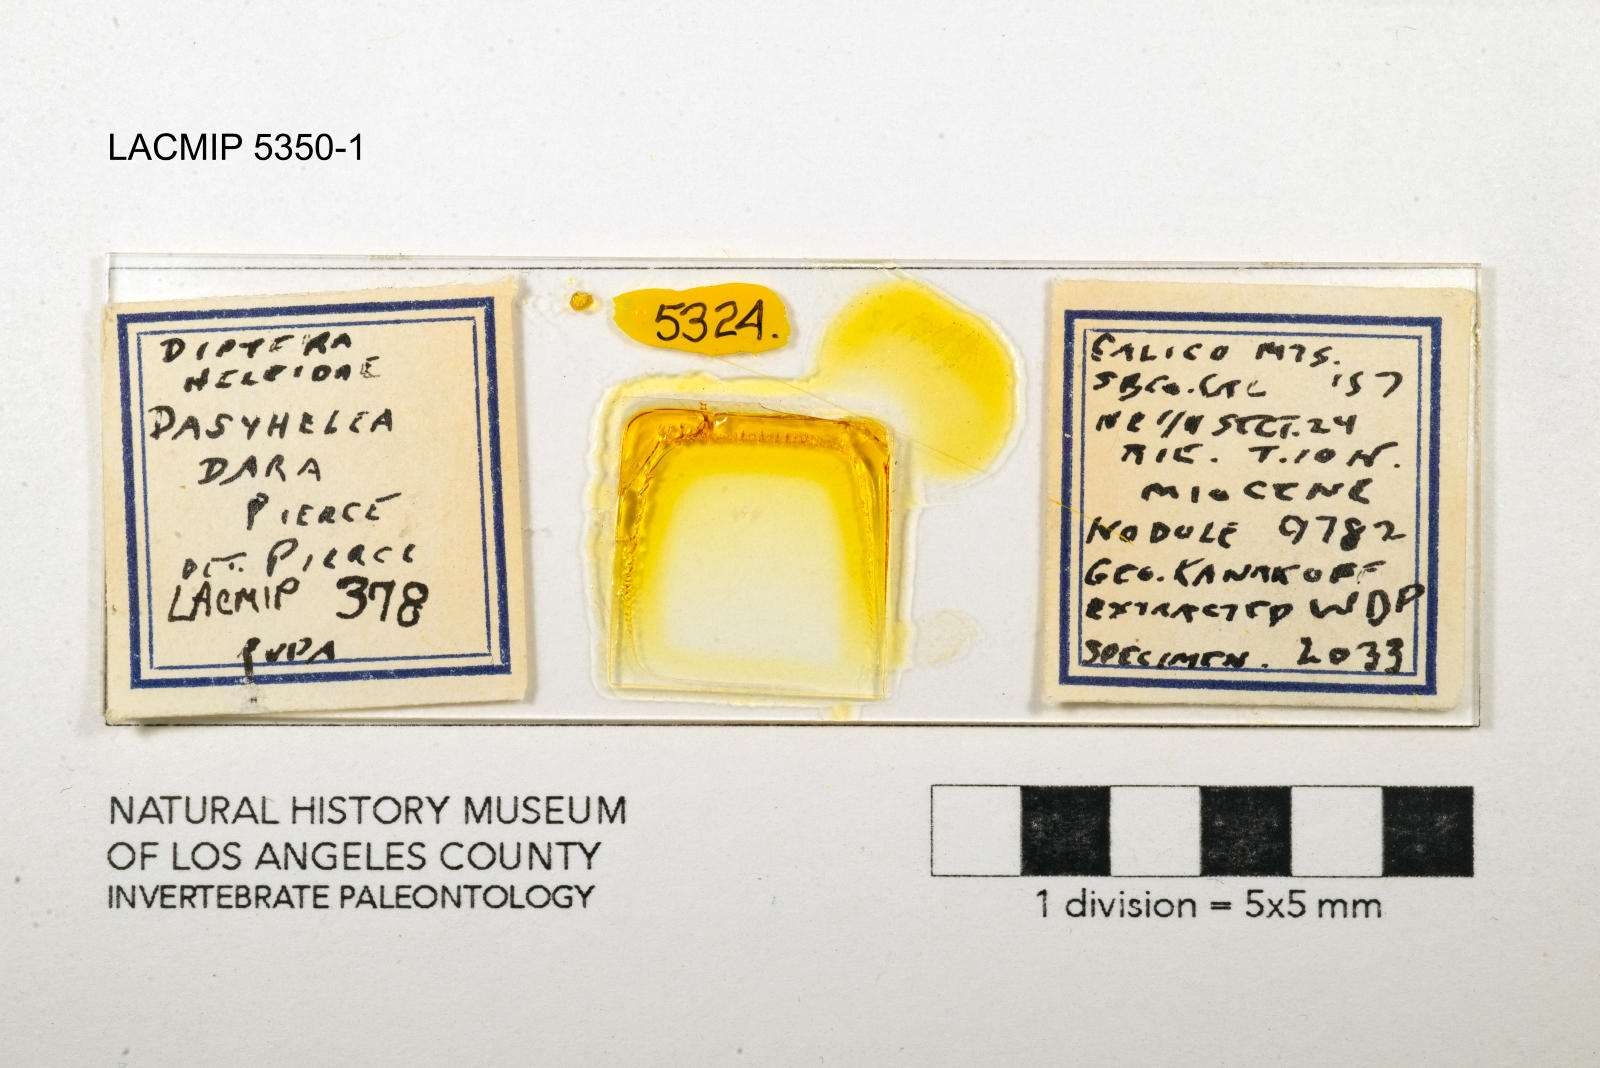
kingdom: Animalia
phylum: Arthropoda
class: Insecta
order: Diptera
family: Ceratopogonidae
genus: Dasyhelea
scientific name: Dasyhelea dara
